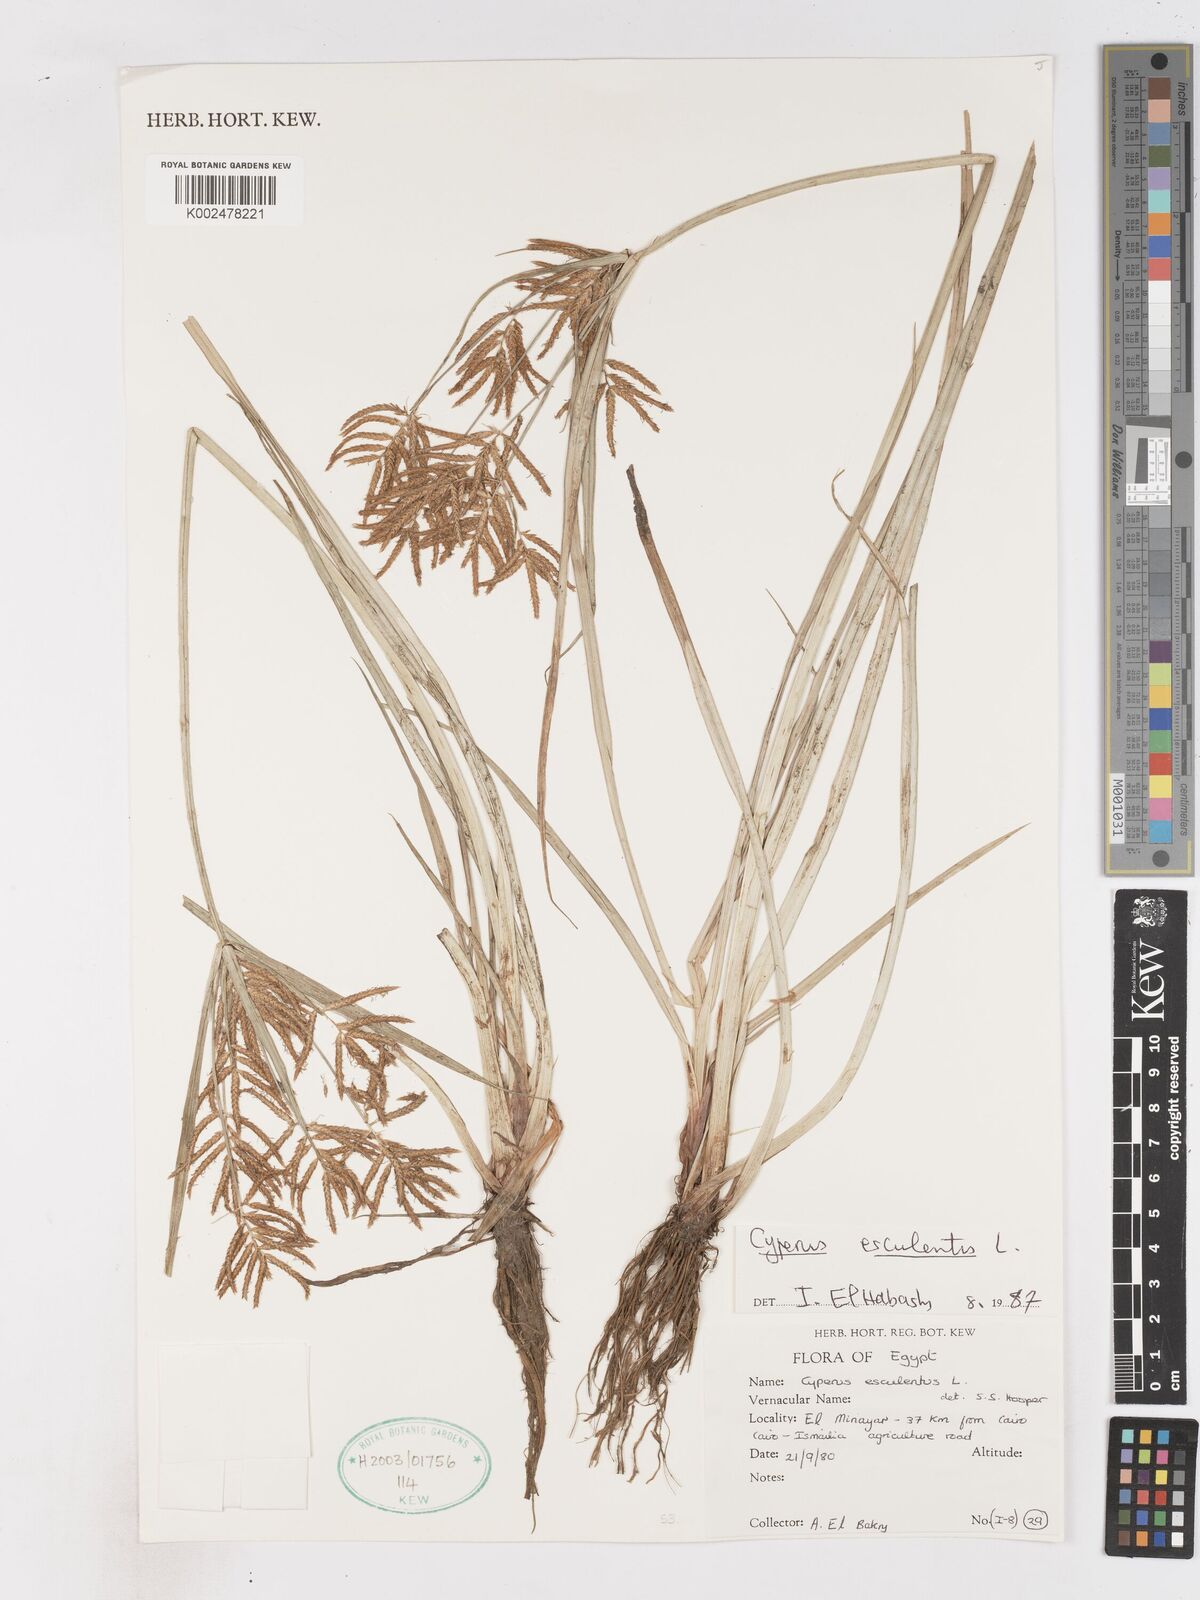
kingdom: Plantae
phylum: Tracheophyta
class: Liliopsida
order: Poales
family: Cyperaceae
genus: Cyperus
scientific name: Cyperus esculentus
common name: Yellow nutsedge
